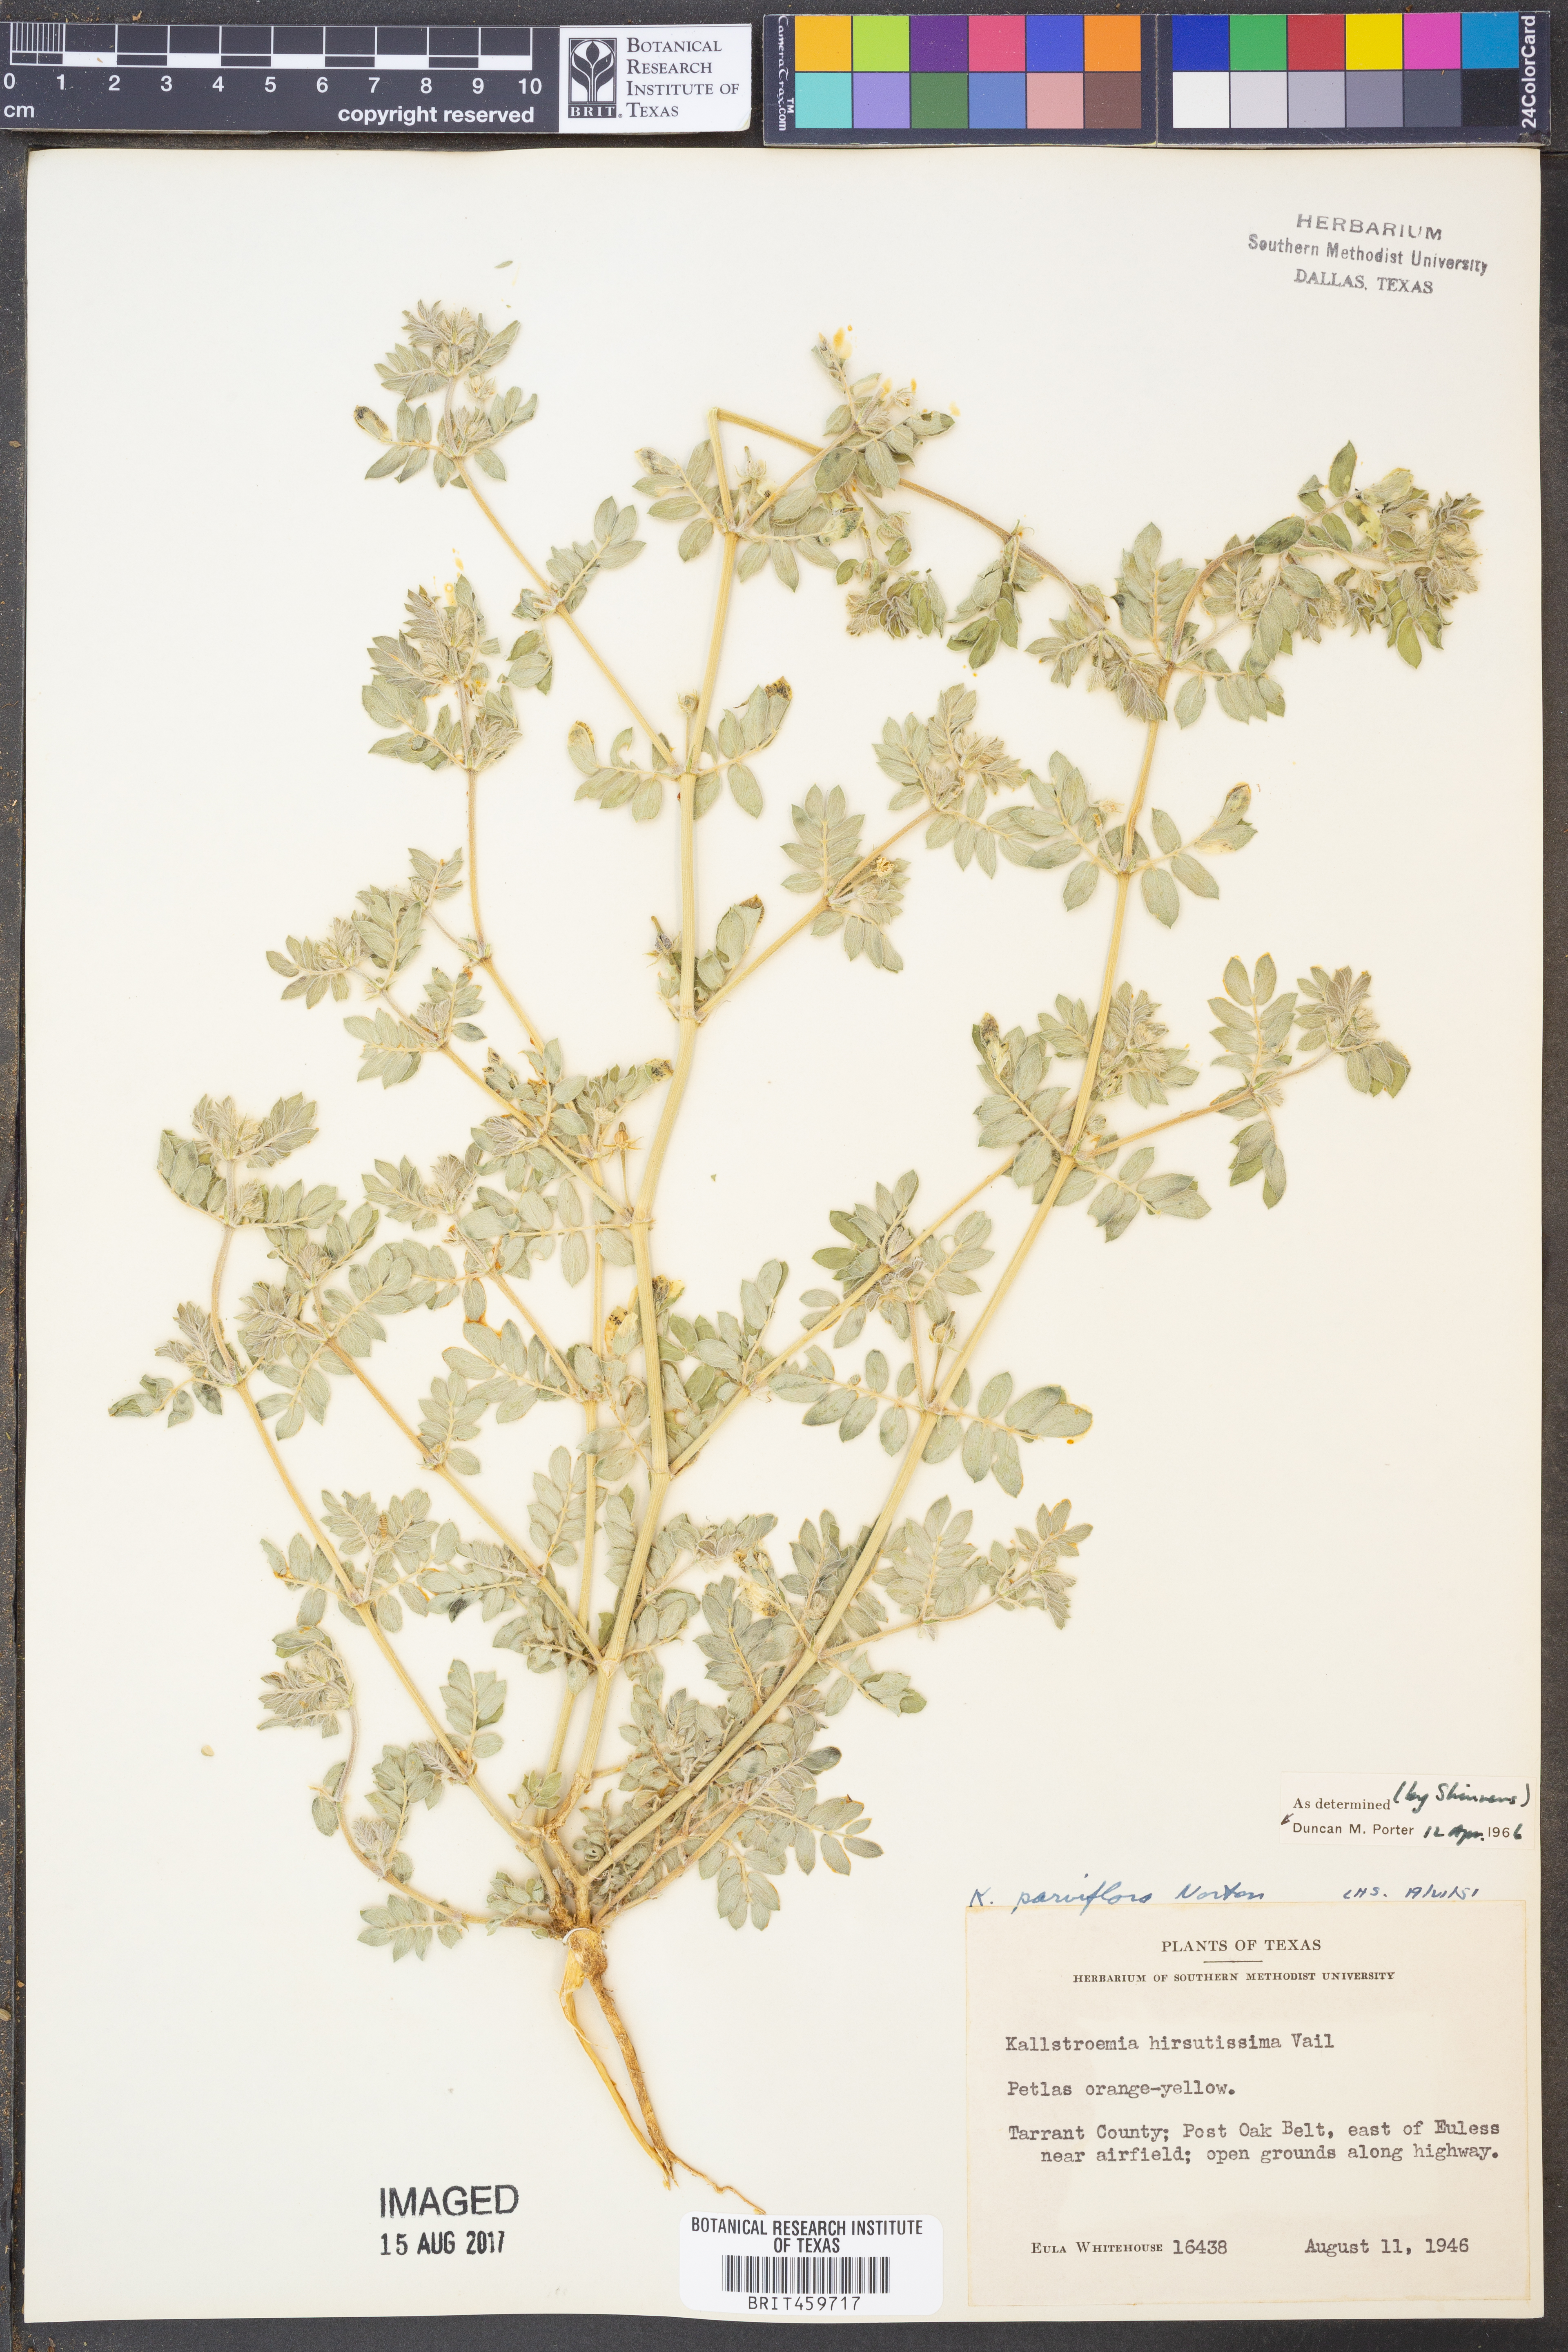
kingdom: Plantae
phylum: Tracheophyta
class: Magnoliopsida
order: Zygophyllales
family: Zygophyllaceae
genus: Kallstroemia
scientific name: Kallstroemia parviflora
